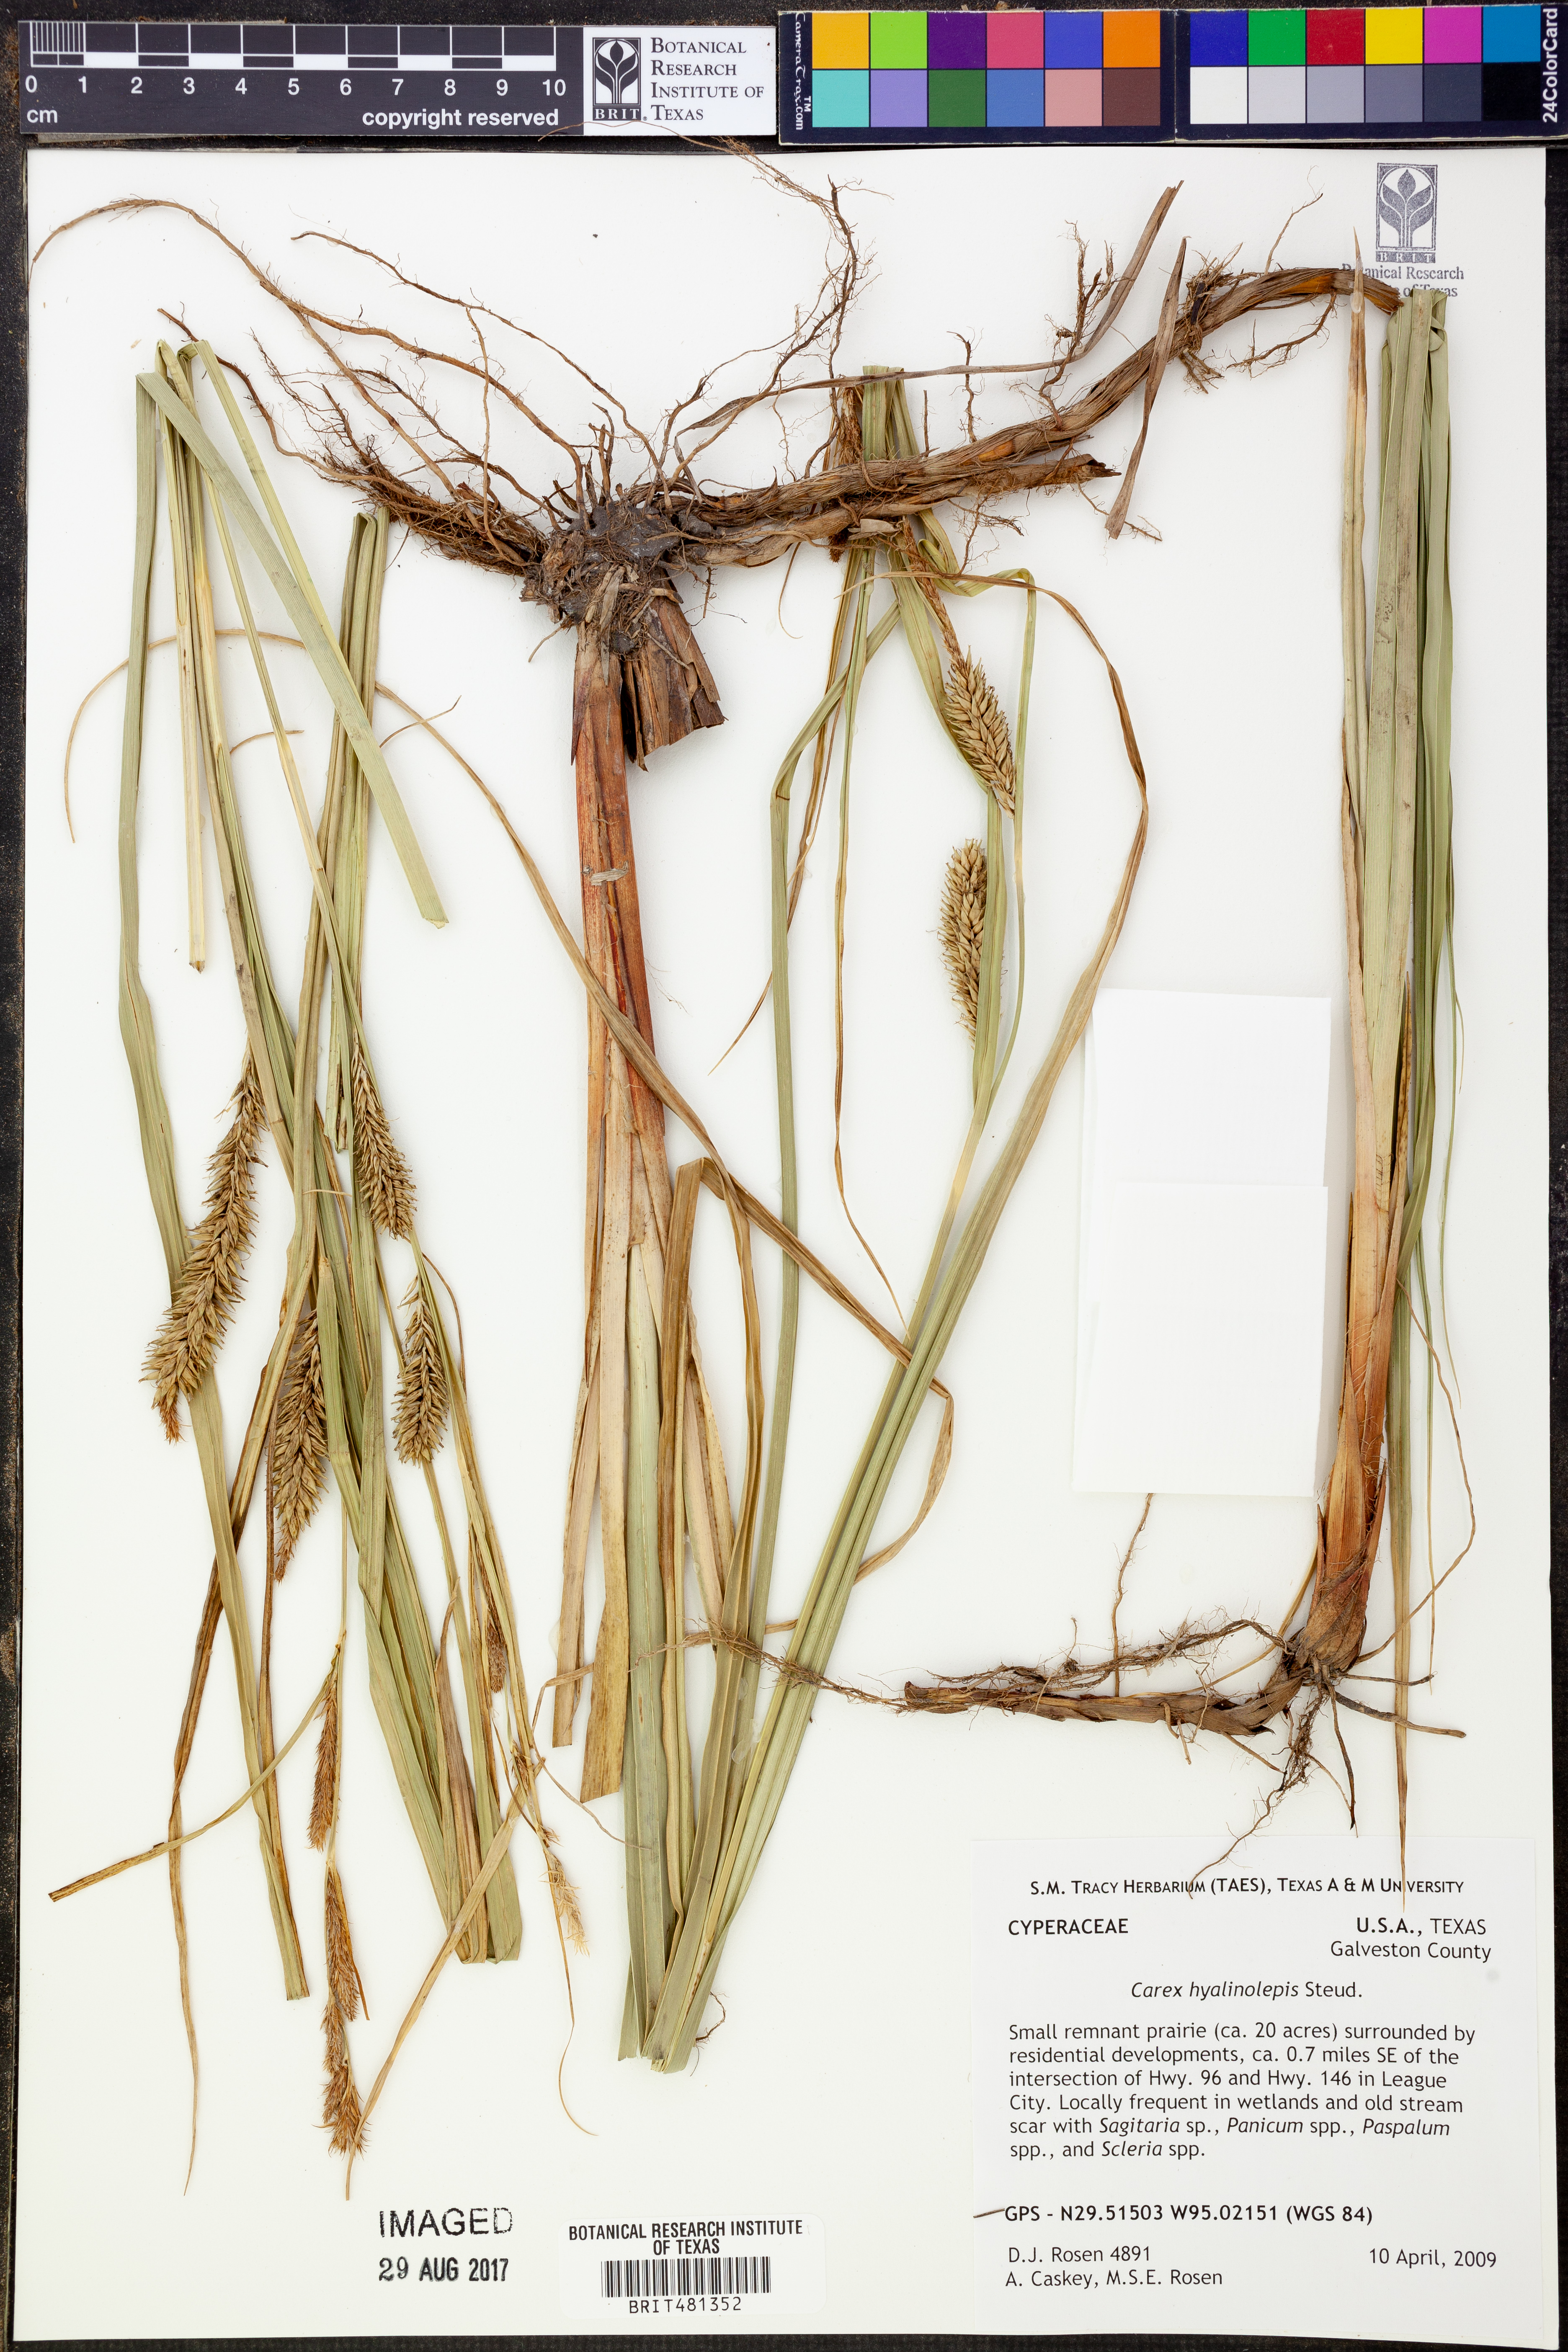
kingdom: Plantae
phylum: Tracheophyta
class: Liliopsida
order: Poales
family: Cyperaceae
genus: Carex
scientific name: Carex hyalinolepis
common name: Shoreline sedge
